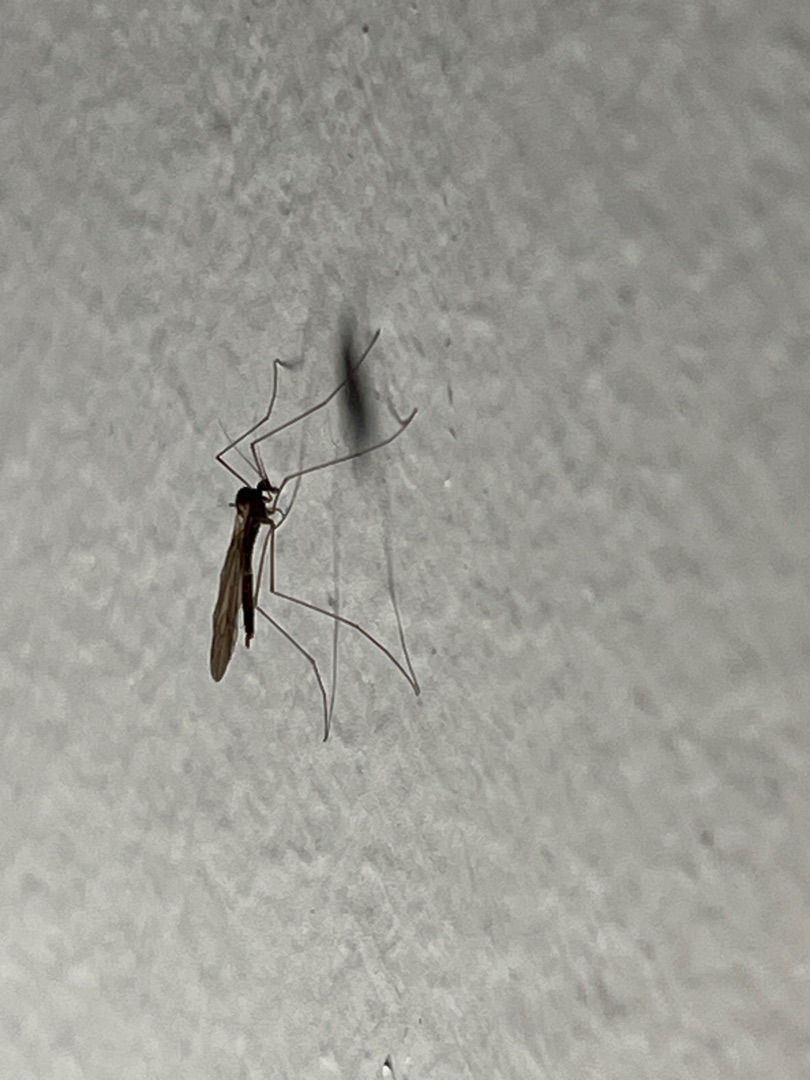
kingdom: Animalia
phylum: Arthropoda
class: Insecta
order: Diptera
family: Trichoceridae
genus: Trichocera
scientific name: Trichocera
